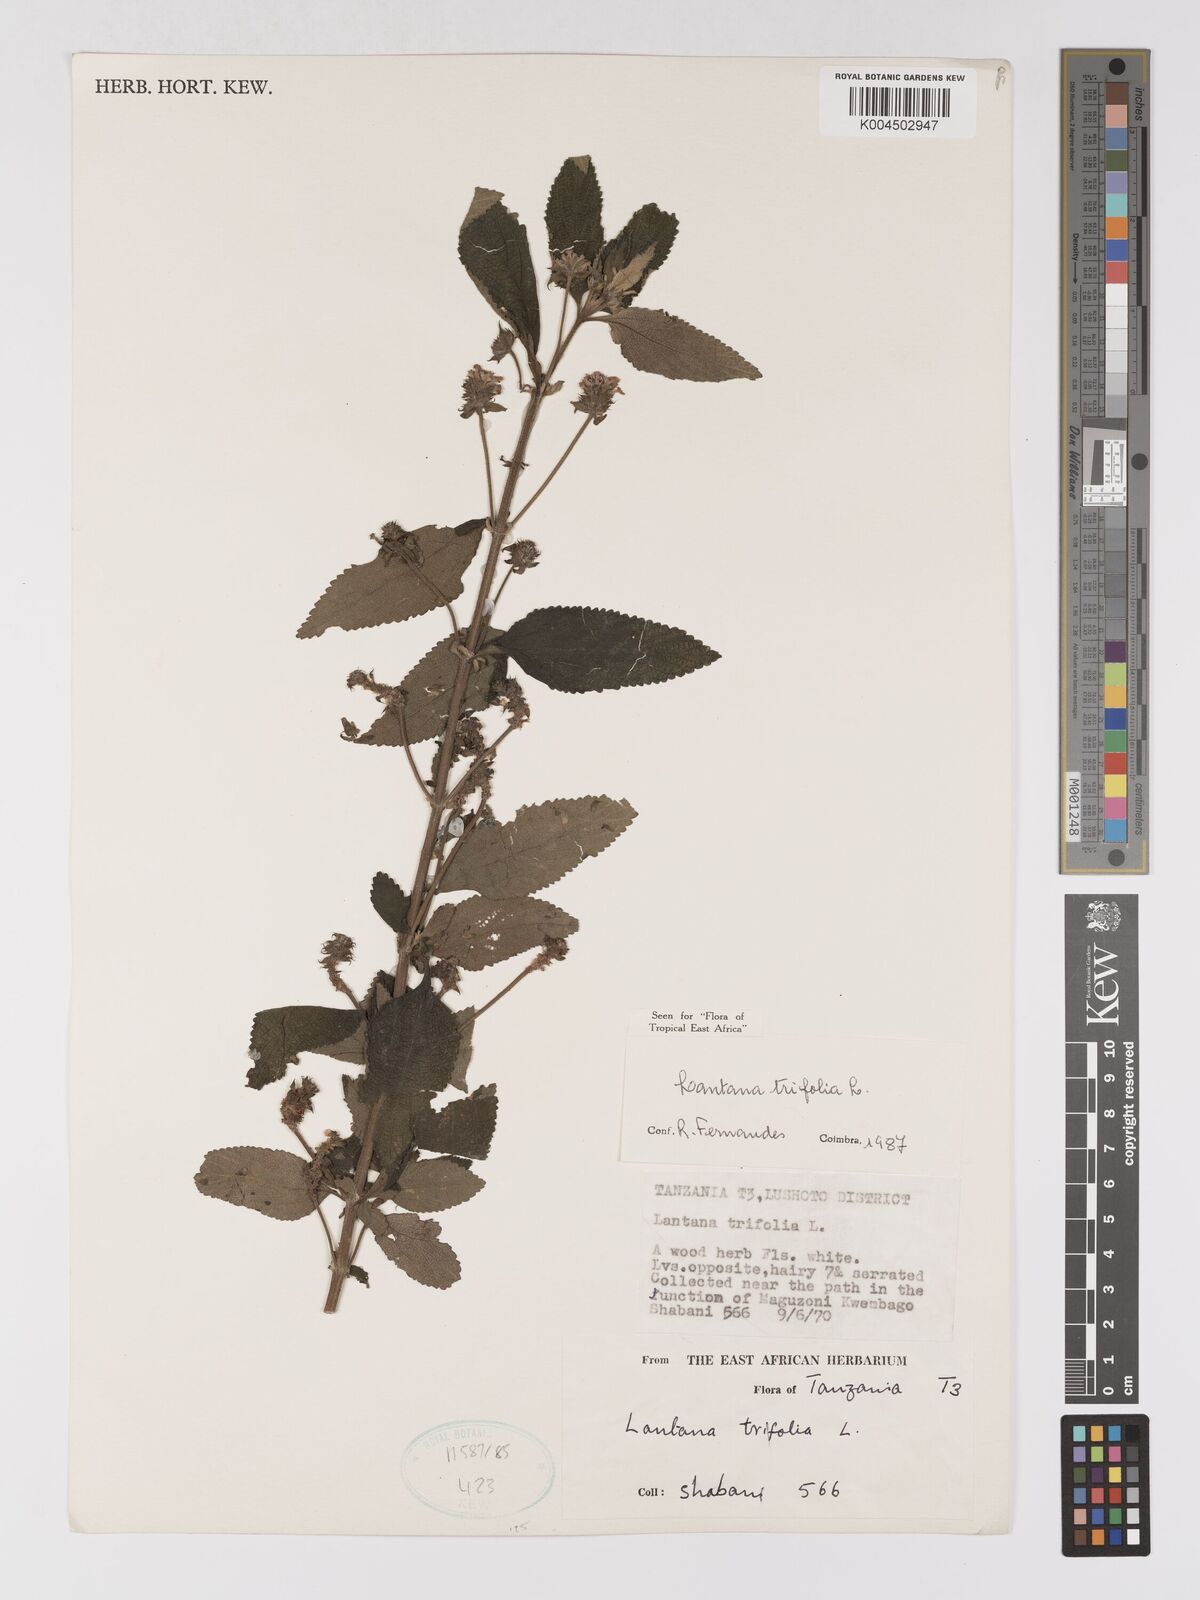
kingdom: Plantae
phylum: Tracheophyta
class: Magnoliopsida
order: Lamiales
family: Verbenaceae
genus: Lantana
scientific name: Lantana trifolia
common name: Sweet-sage
